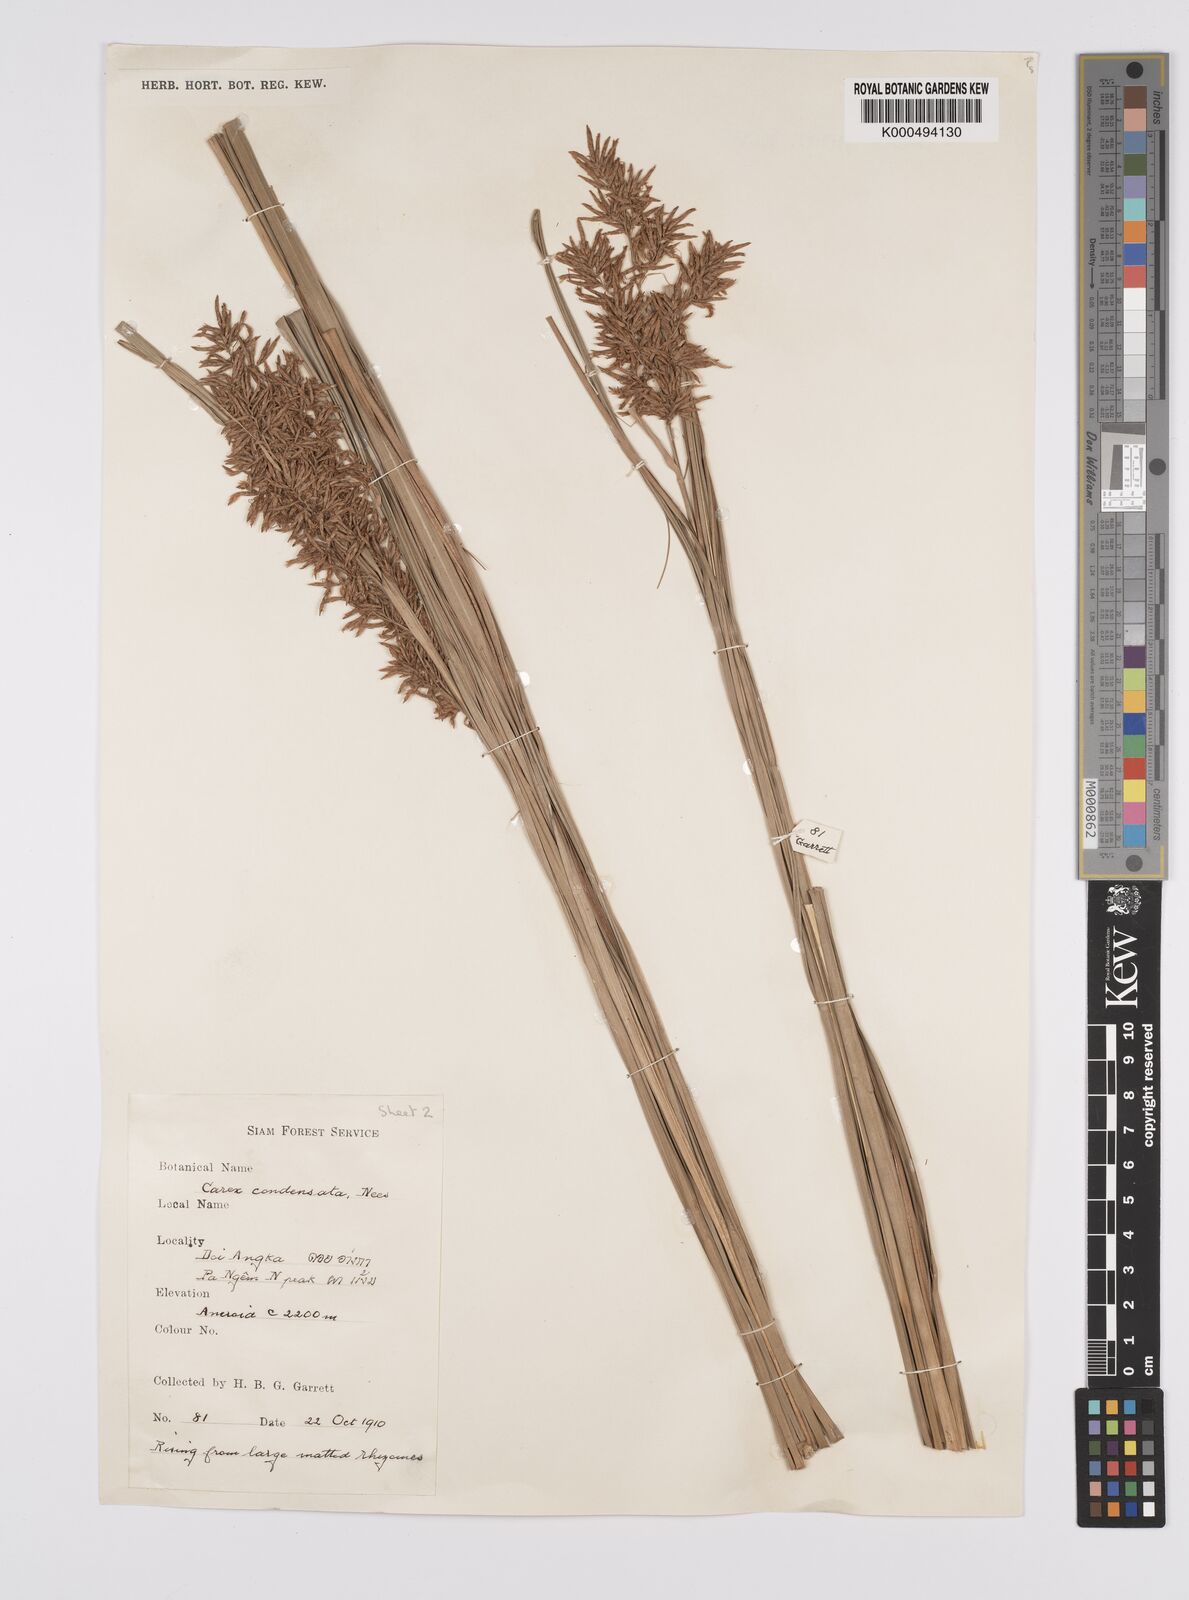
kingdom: Plantae
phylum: Tracheophyta
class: Liliopsida
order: Poales
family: Cyperaceae
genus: Carex
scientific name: Carex condensata
